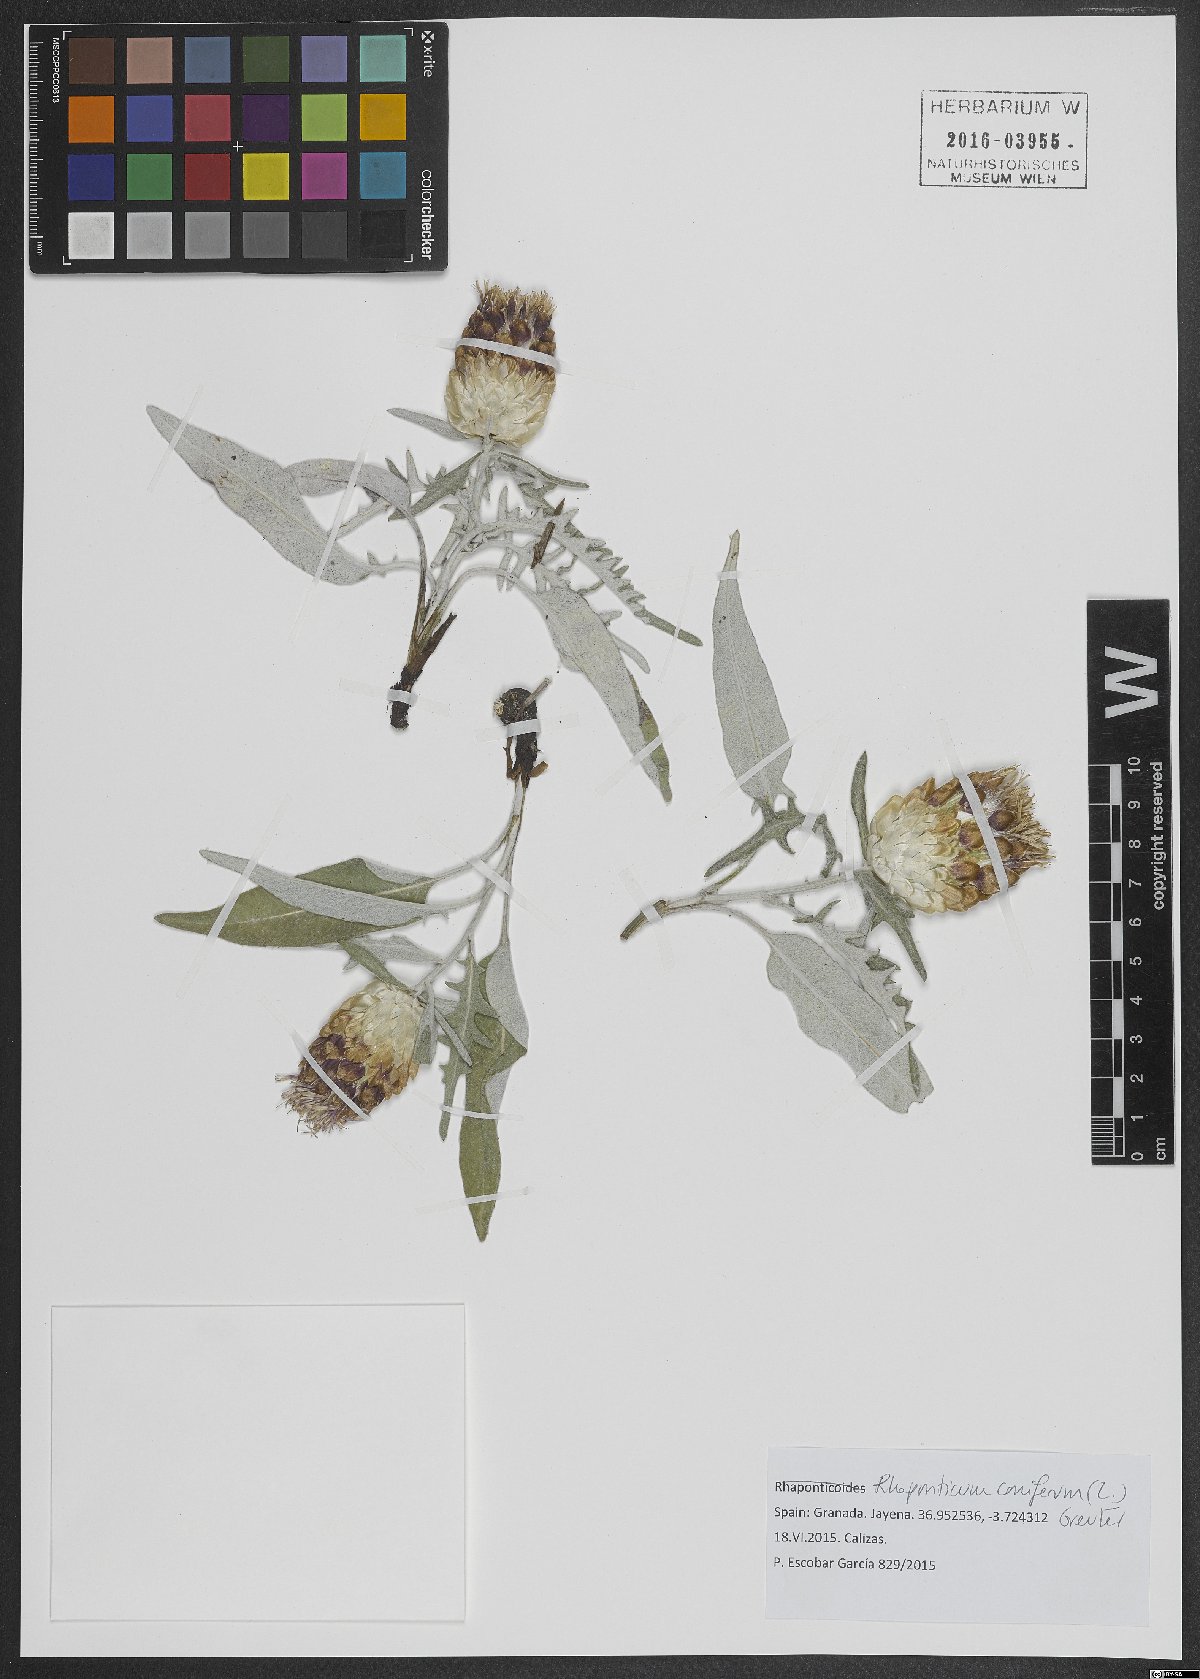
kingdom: Plantae
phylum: Tracheophyta
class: Magnoliopsida
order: Asterales
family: Asteraceae
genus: Leuzea
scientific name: Leuzea conifera
